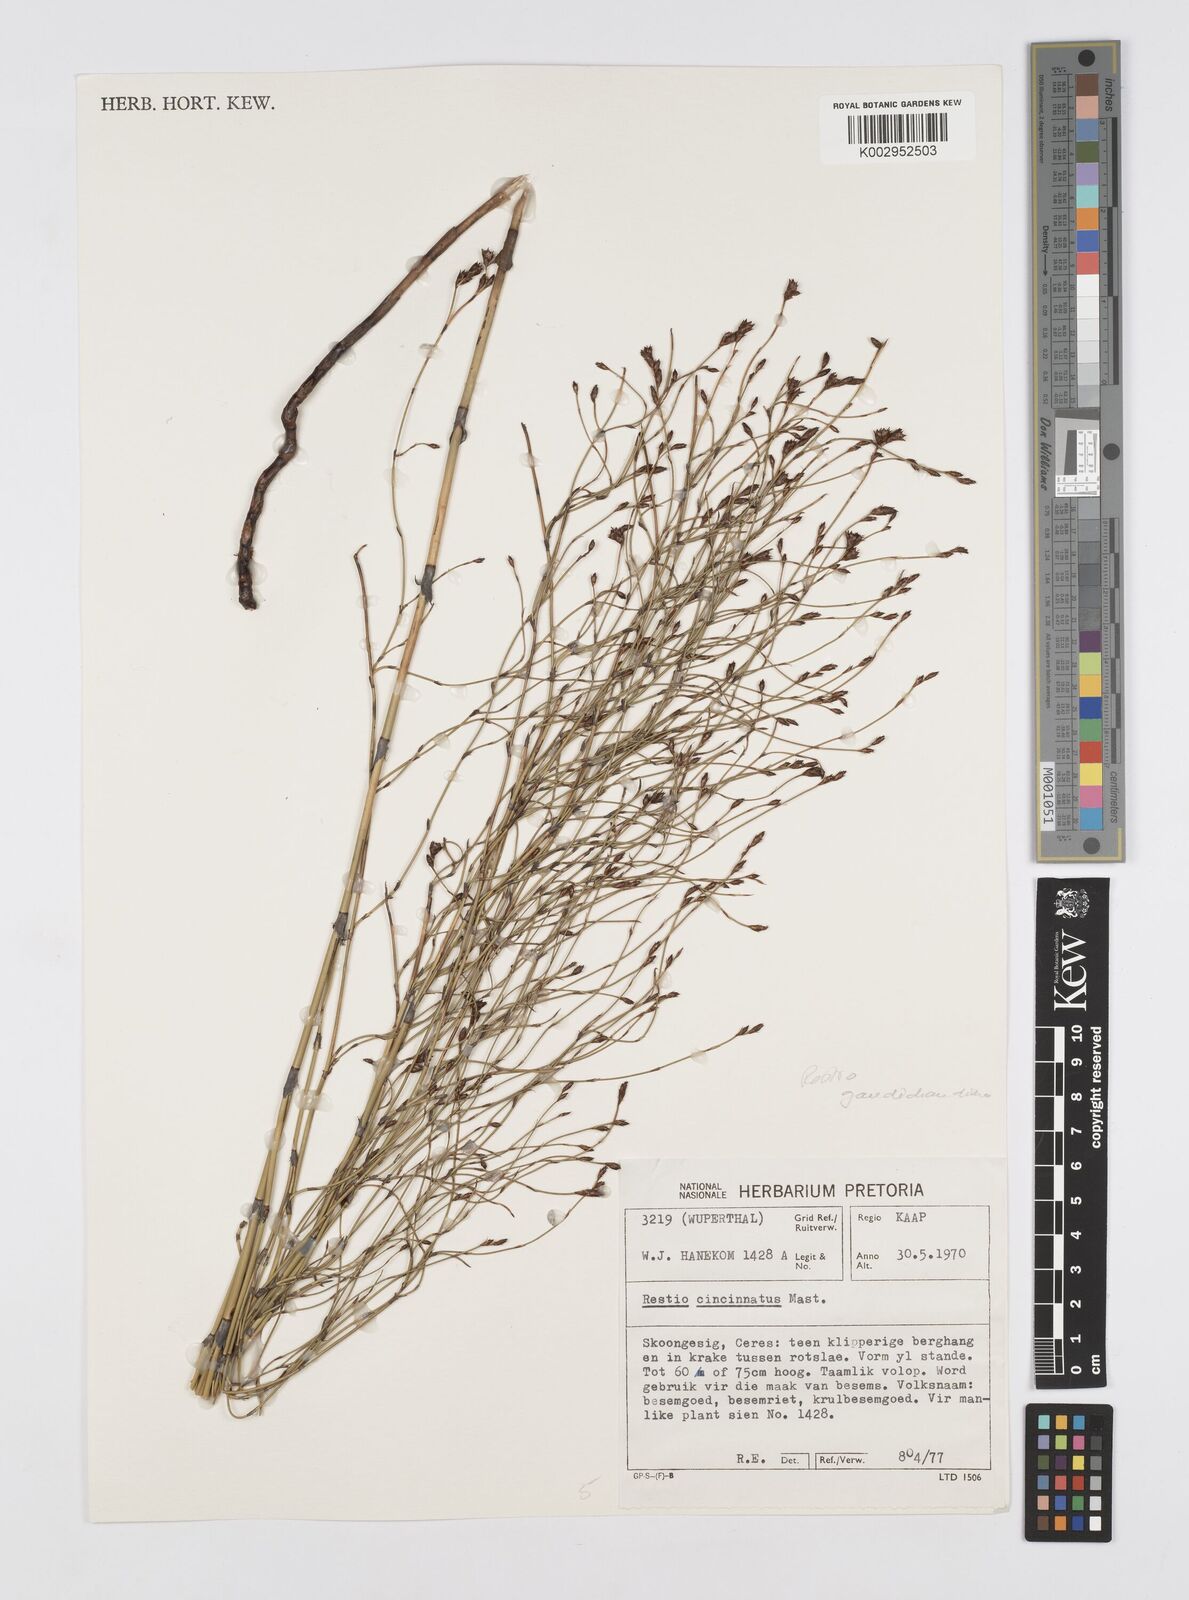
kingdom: Plantae
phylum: Tracheophyta
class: Liliopsida
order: Poales
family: Restionaceae
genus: Restio
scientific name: Restio gaudichaudianus
